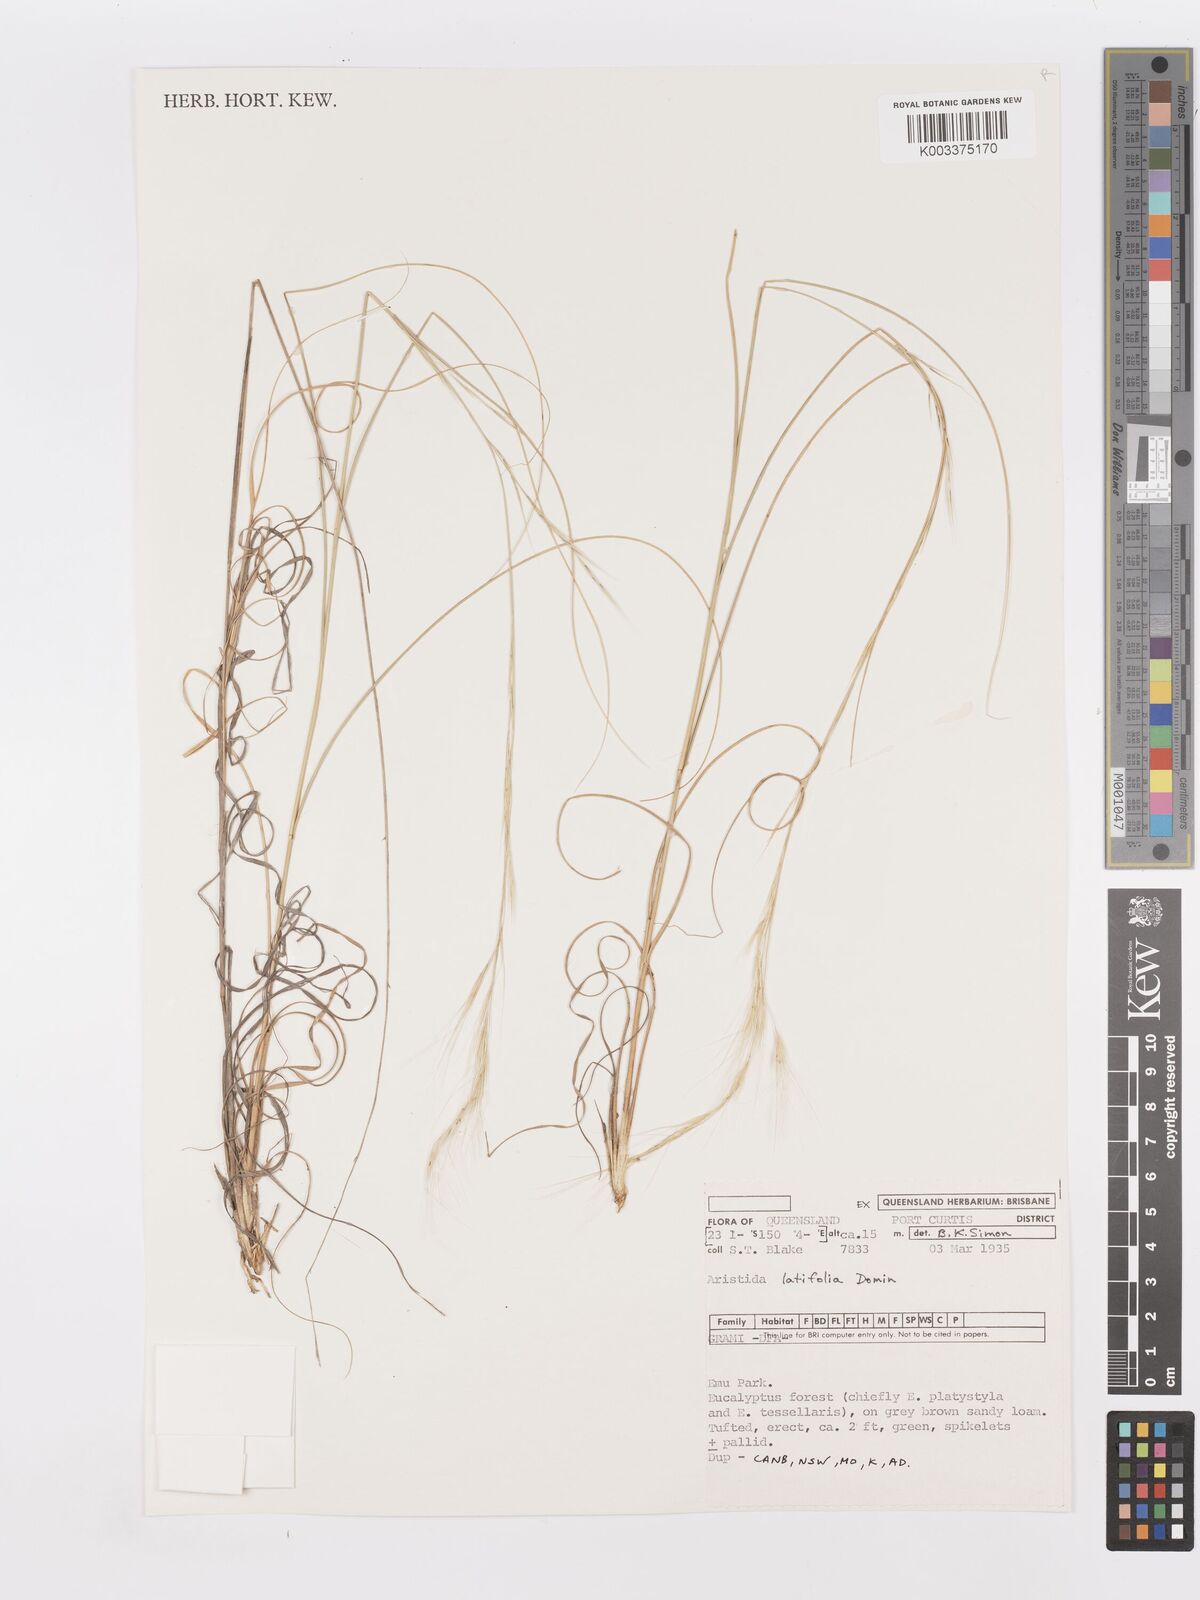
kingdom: Plantae
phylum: Tracheophyta
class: Liliopsida
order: Poales
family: Poaceae
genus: Aristida
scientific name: Aristida latifolia
